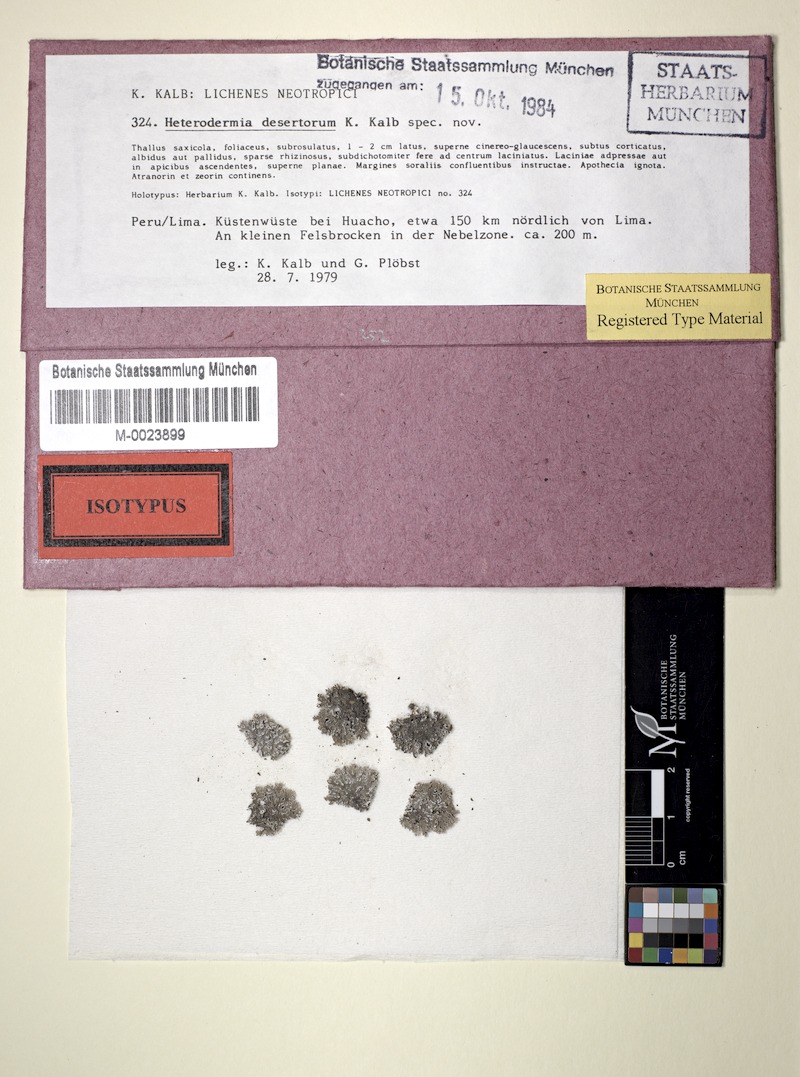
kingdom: Fungi
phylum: Ascomycota
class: Lecanoromycetes
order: Caliciales
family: Physciaceae
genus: Kashiwadia
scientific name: Kashiwadia nubila
